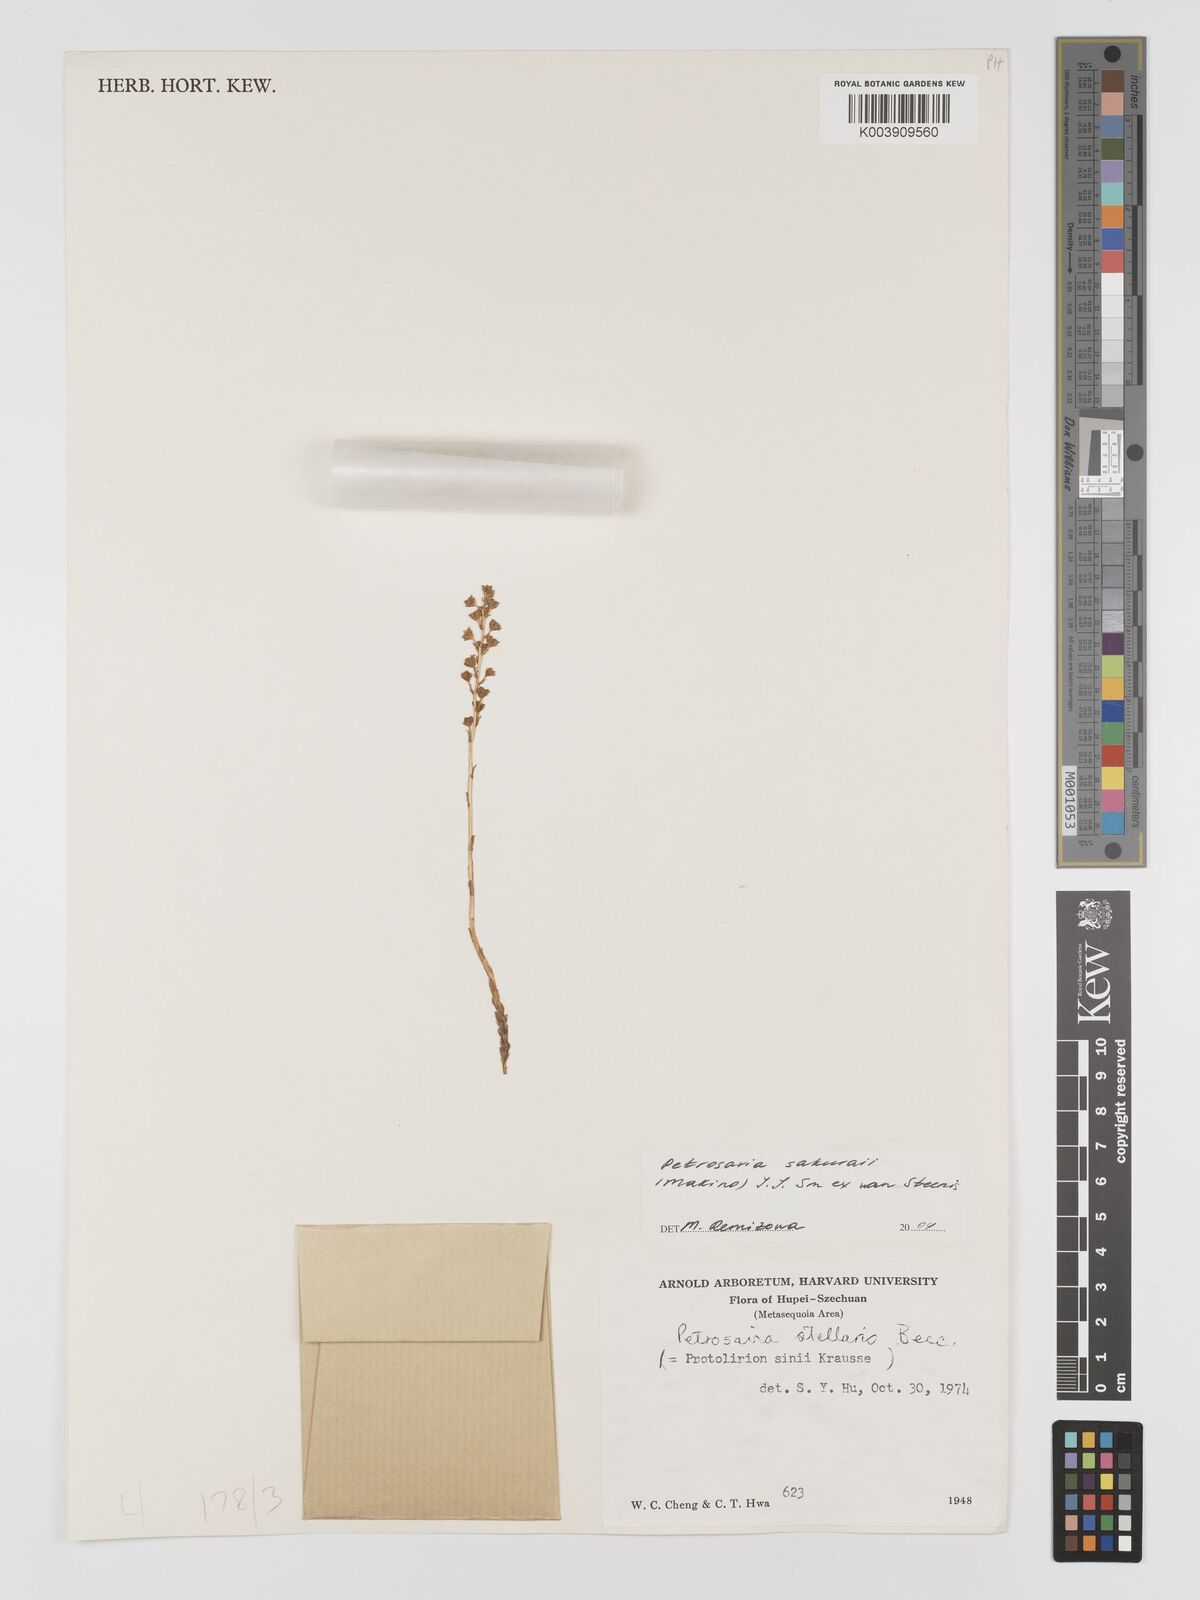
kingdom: Plantae
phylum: Tracheophyta
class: Liliopsida
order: Petrosaviales
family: Petrosaviaceae
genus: Petrosavia
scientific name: Petrosavia sakuraii
